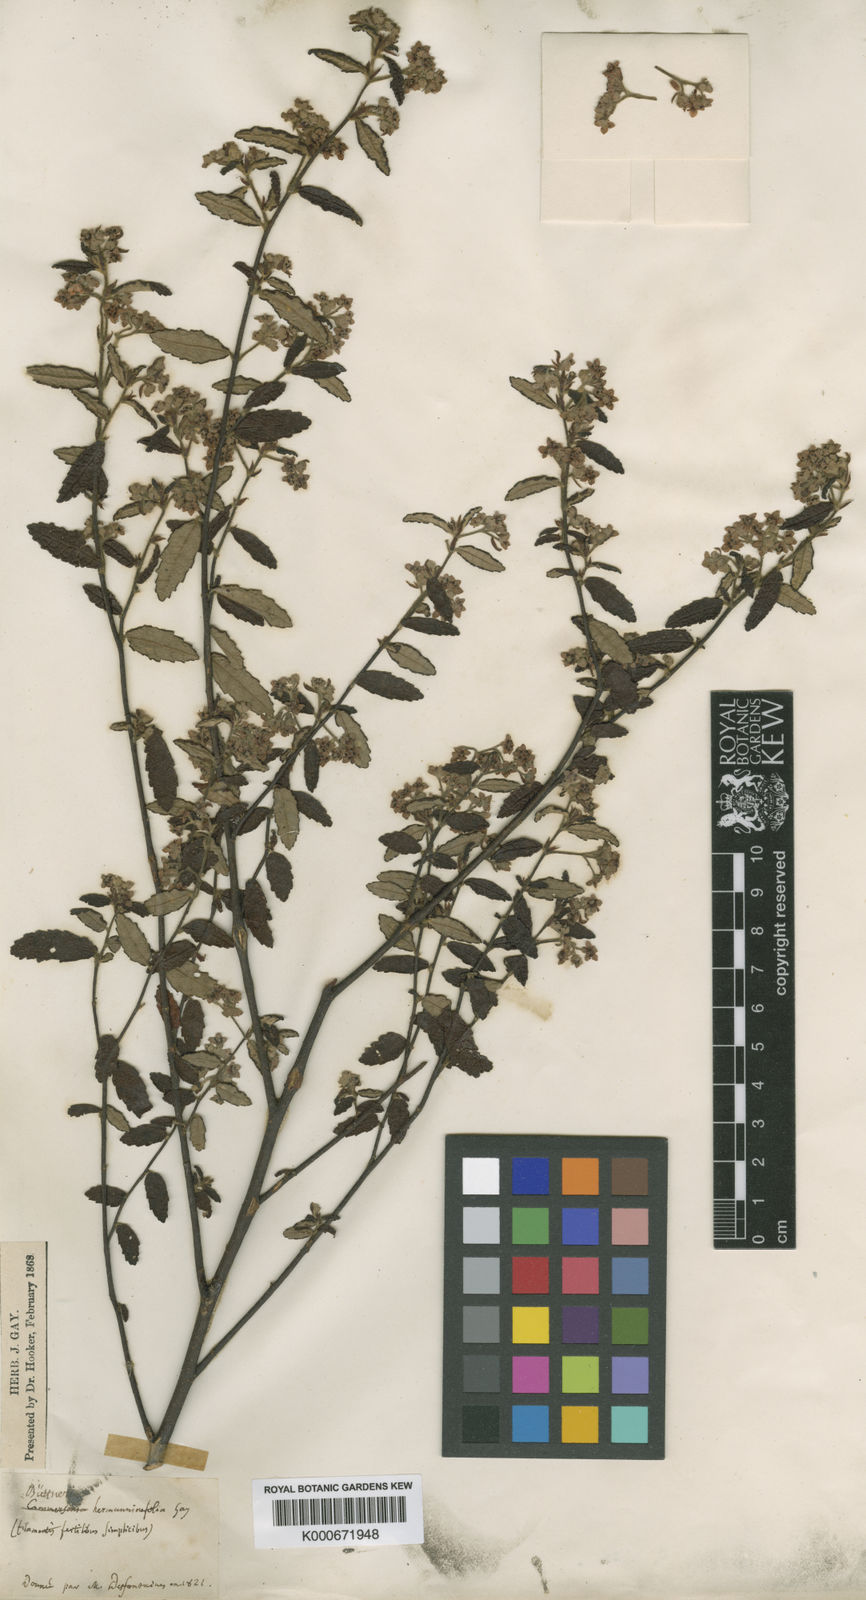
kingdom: Plantae
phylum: Tracheophyta
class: Magnoliopsida
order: Malvales
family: Malvaceae
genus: Commersonia
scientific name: Commersonia hermanniifolia
